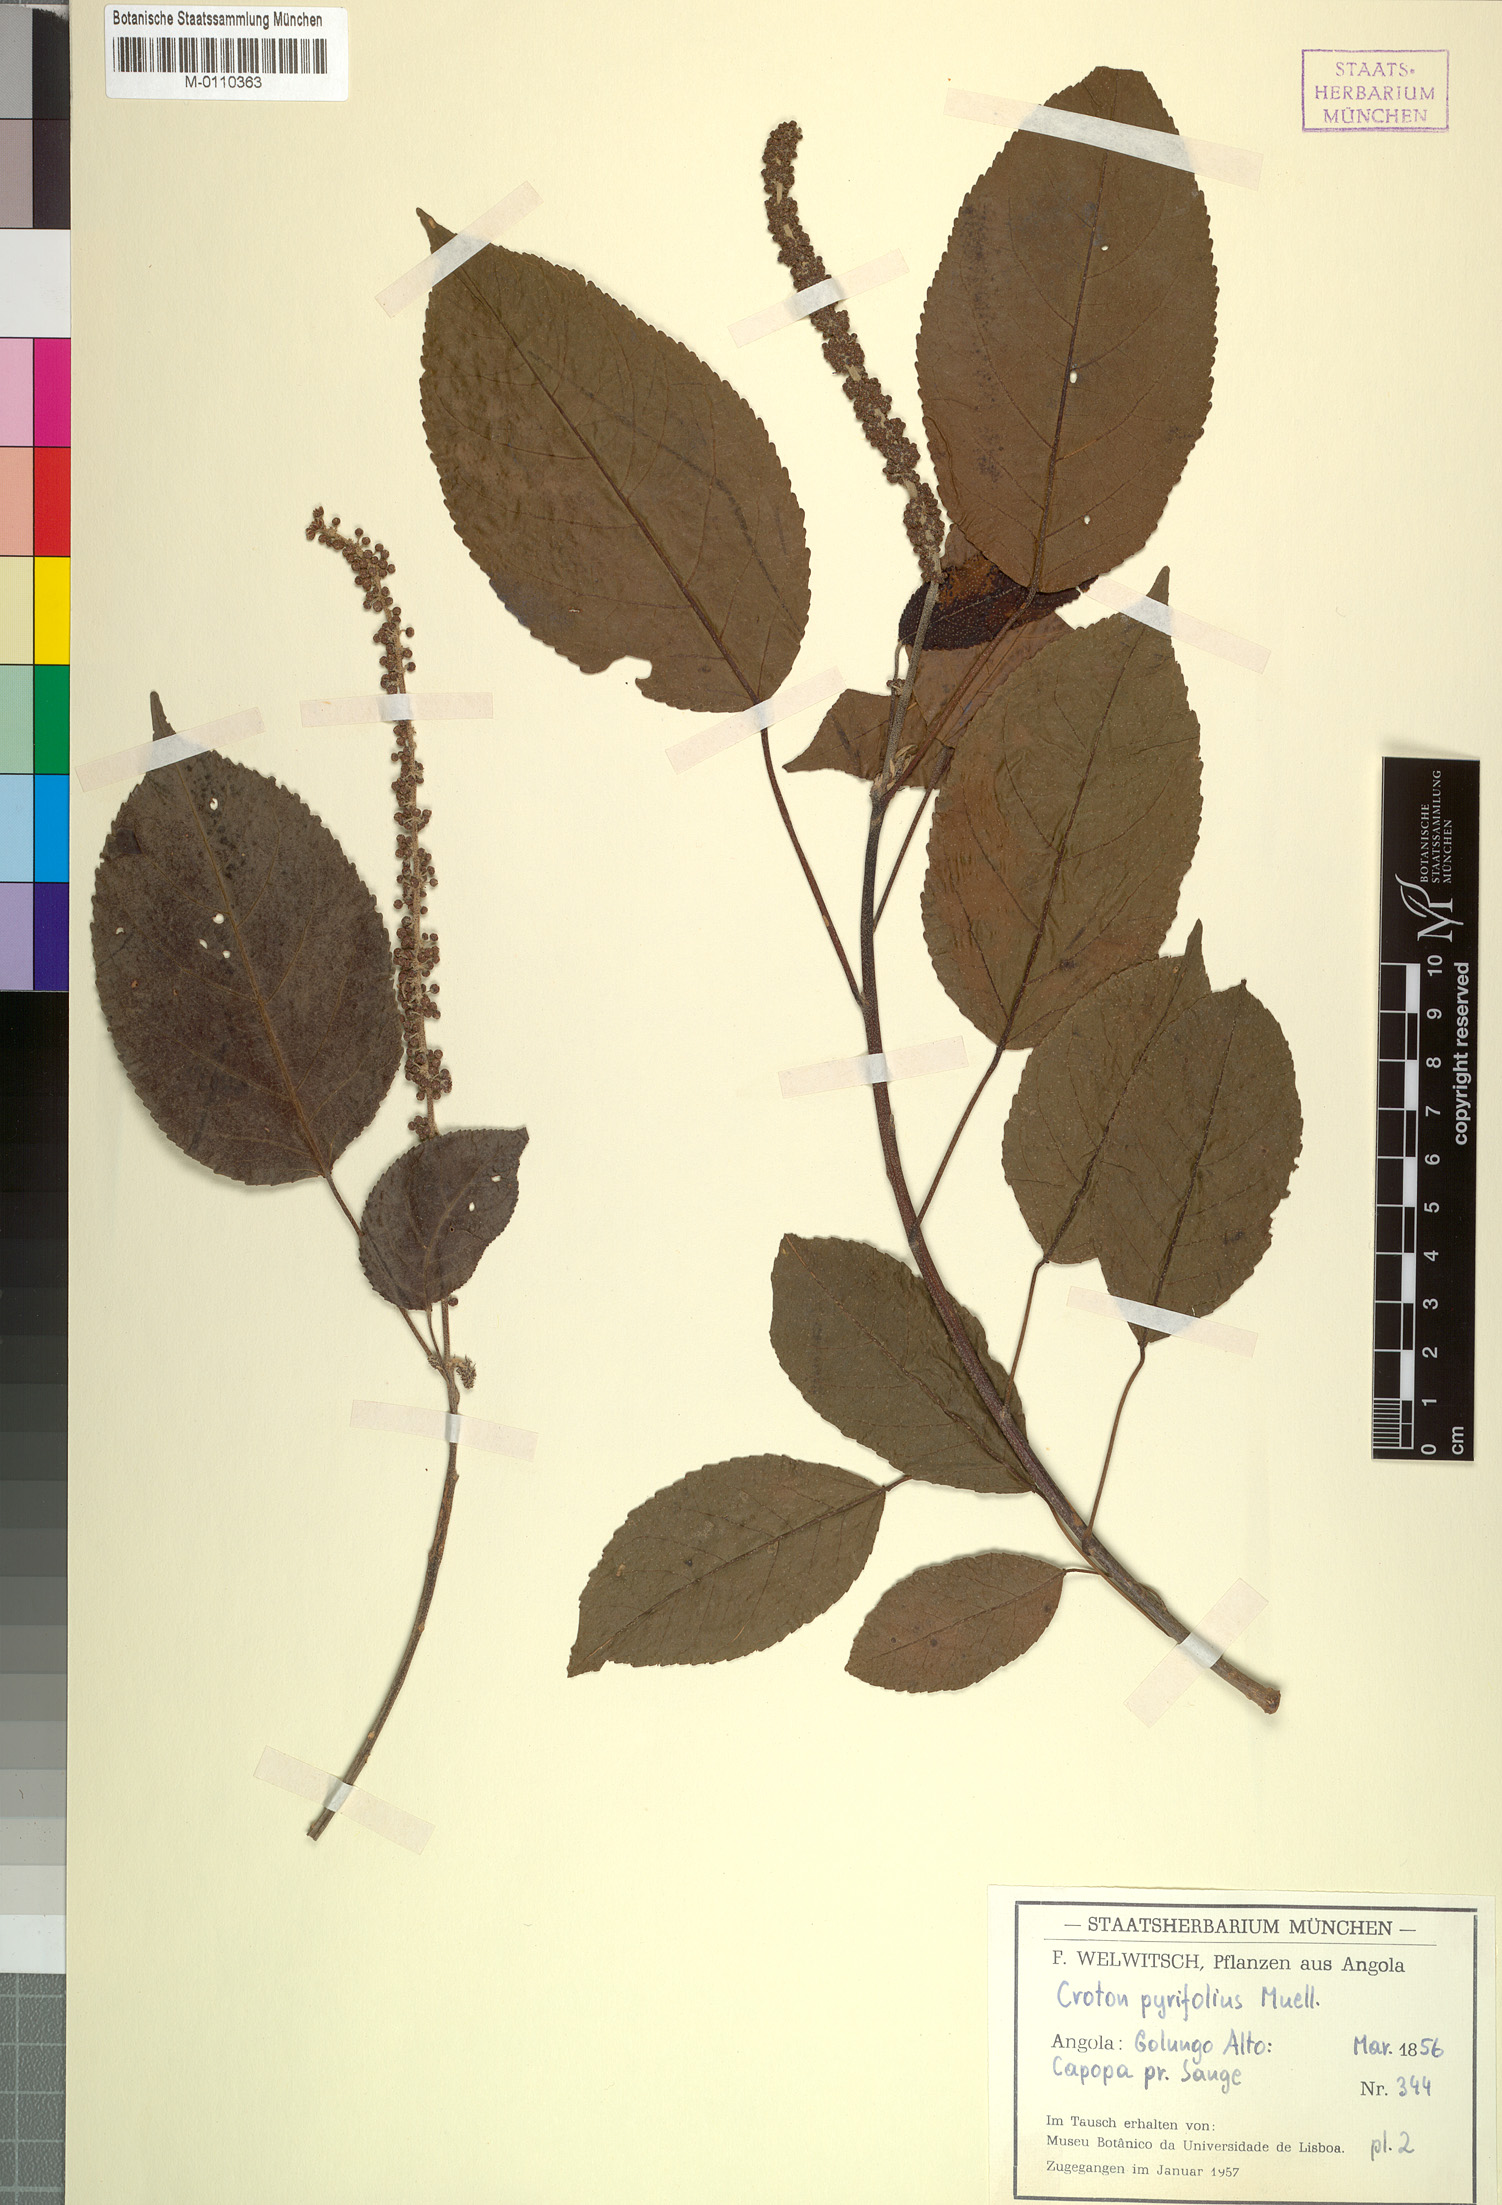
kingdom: Plantae
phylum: Tracheophyta
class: Magnoliopsida
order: Malpighiales
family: Euphorbiaceae
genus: Croton
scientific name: Croton pyrifolius
